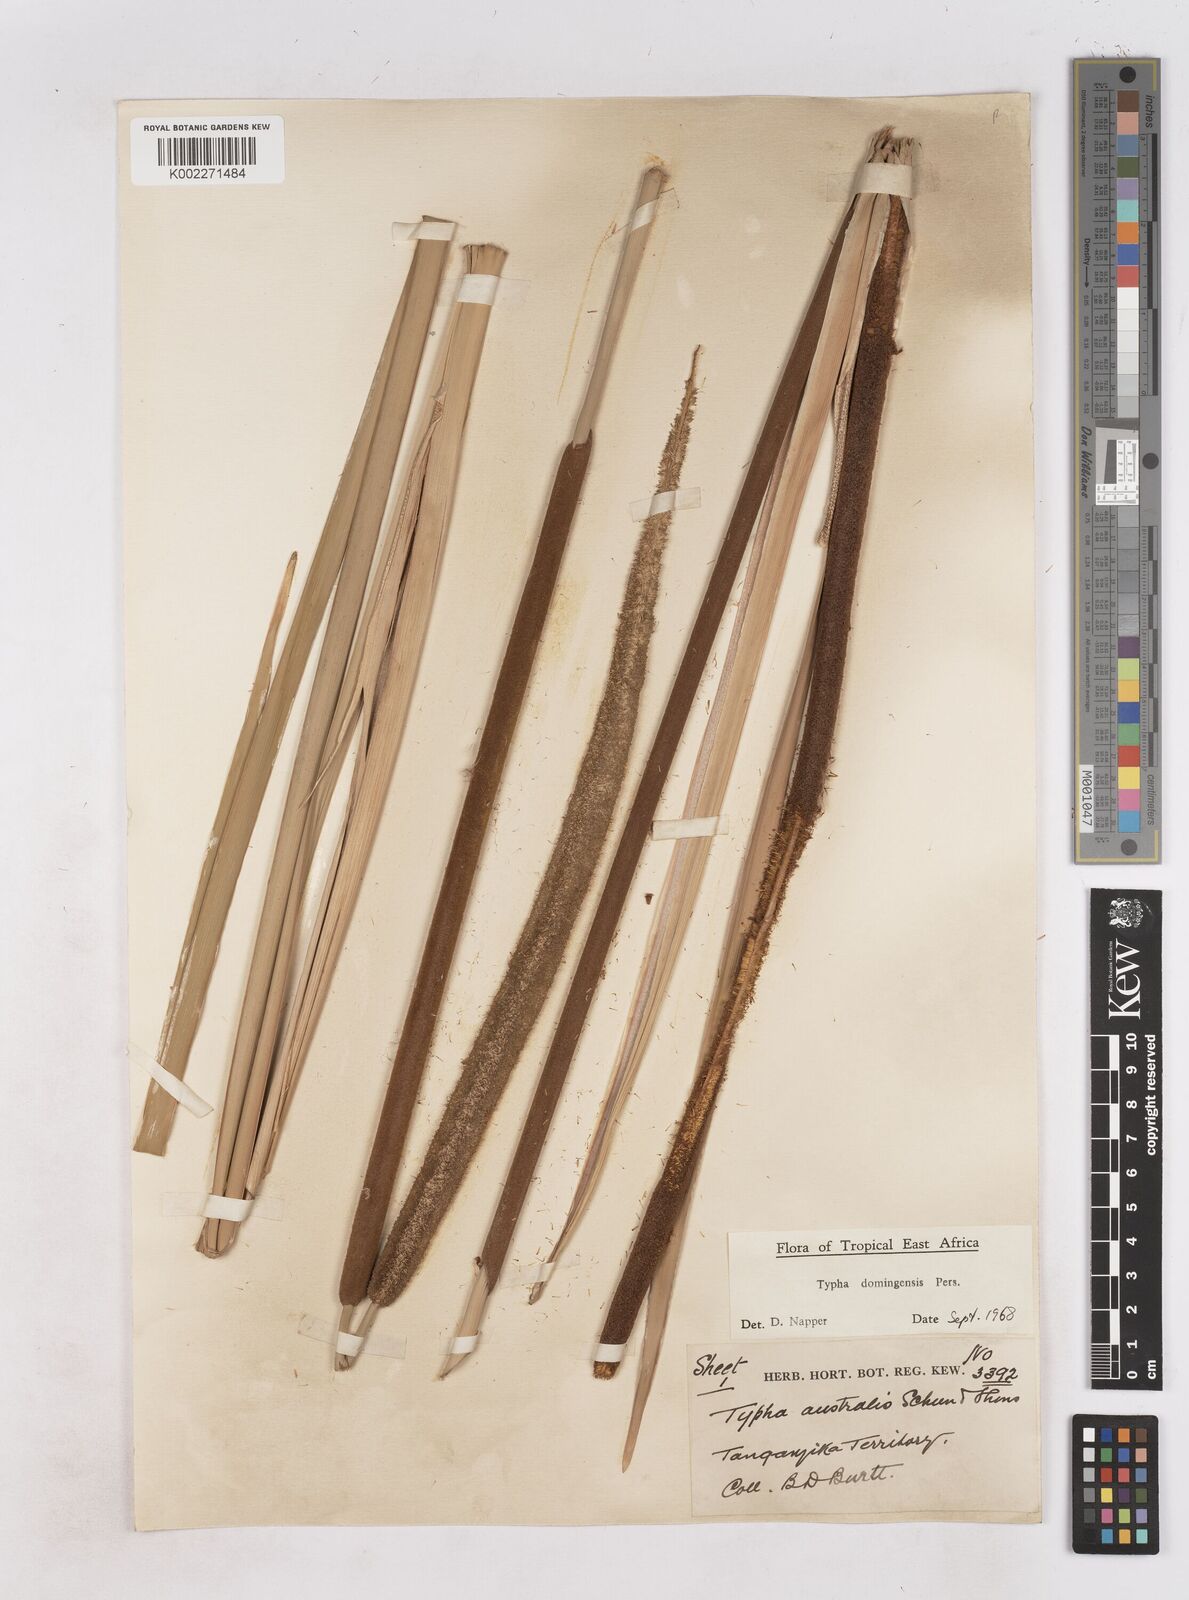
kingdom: Plantae
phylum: Tracheophyta
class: Liliopsida
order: Poales
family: Typhaceae
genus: Typha
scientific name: Typha domingensis
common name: Southern cattail
